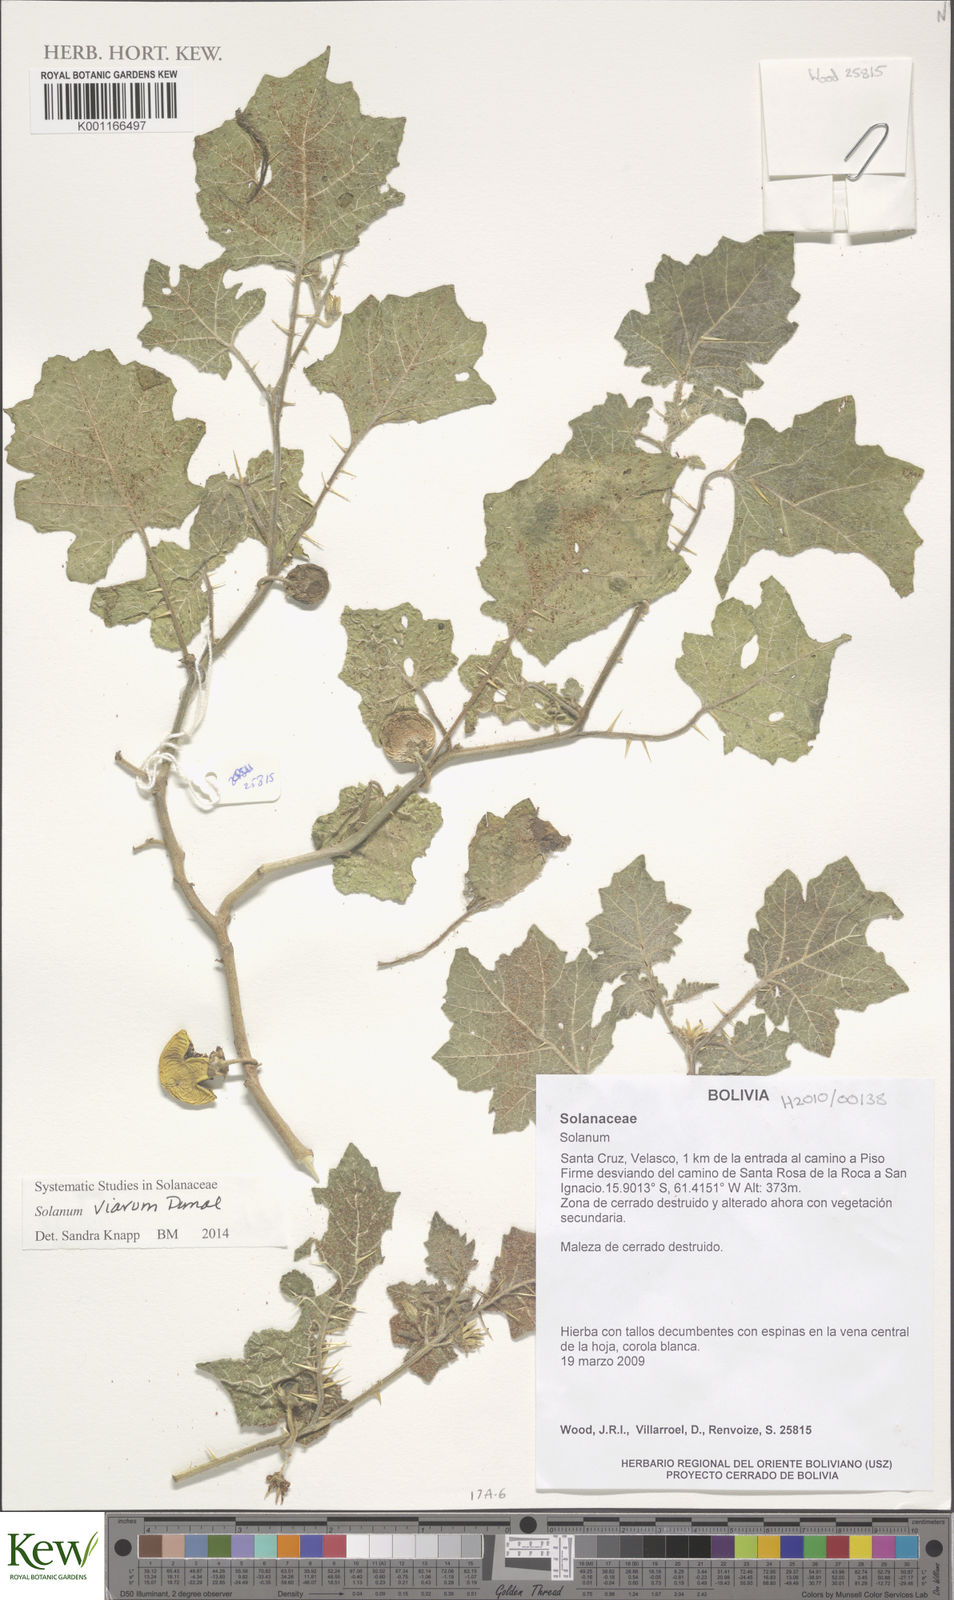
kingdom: Plantae
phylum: Tracheophyta
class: Magnoliopsida
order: Solanales
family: Solanaceae
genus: Solanum
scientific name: Solanum viarum
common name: Tropical soda apple
